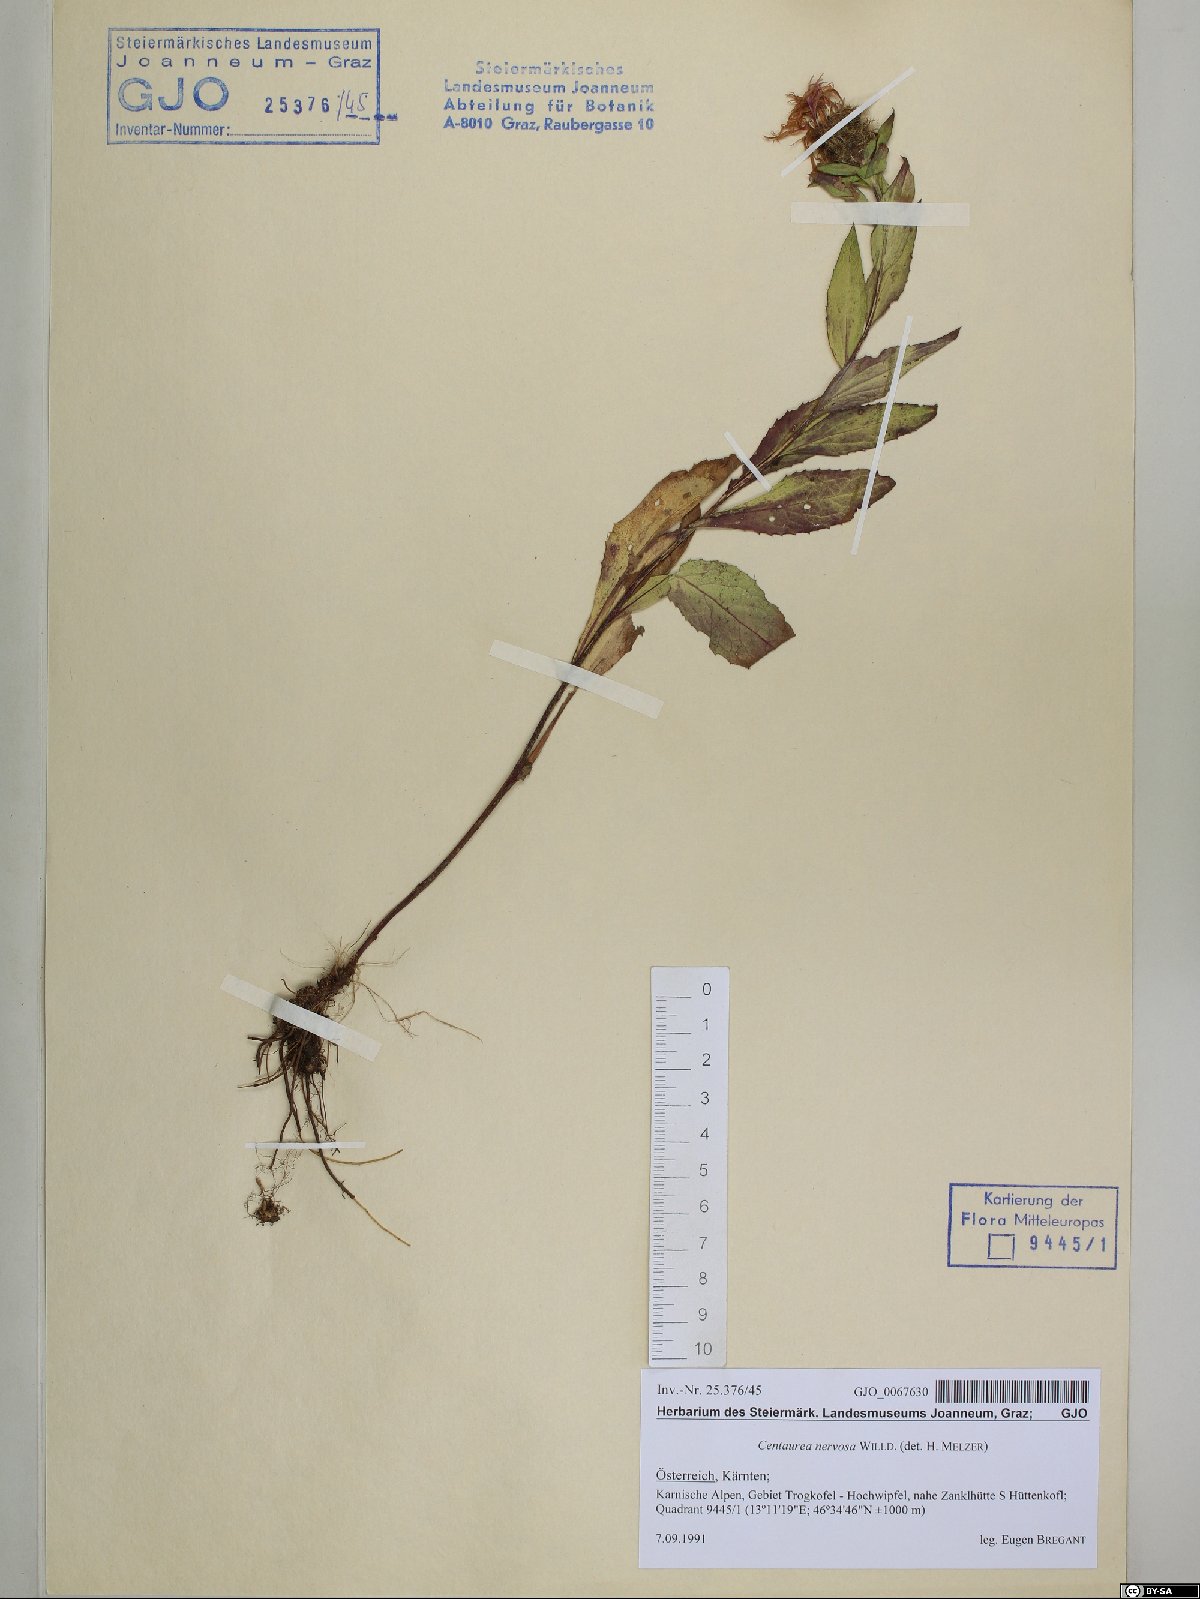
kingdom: Plantae
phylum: Tracheophyta
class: Magnoliopsida
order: Asterales
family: Asteraceae
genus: Centaurea
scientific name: Centaurea nervosa
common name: Singleflower knapweed
